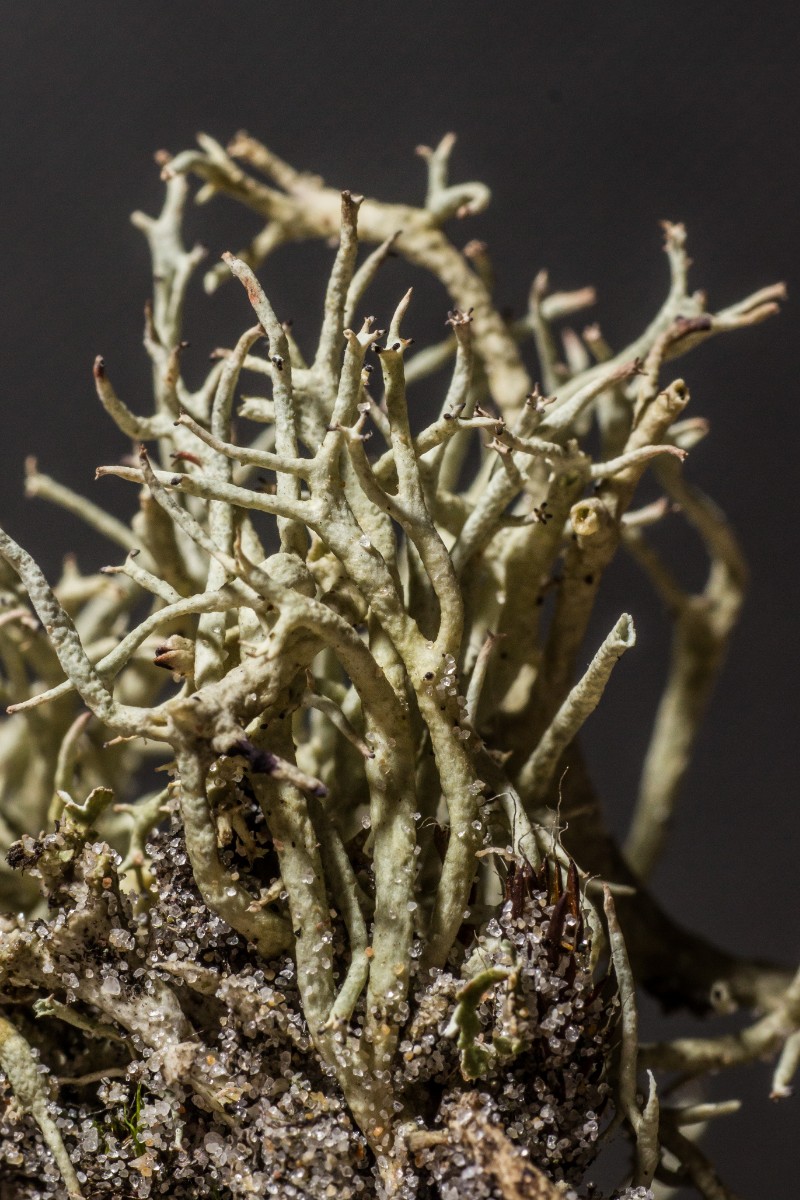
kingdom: Fungi
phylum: Ascomycota
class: Lecanoromycetes
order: Lecanorales
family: Cladoniaceae
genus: Cladonia
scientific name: Cladonia zopfii
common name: klit-bægerlav
